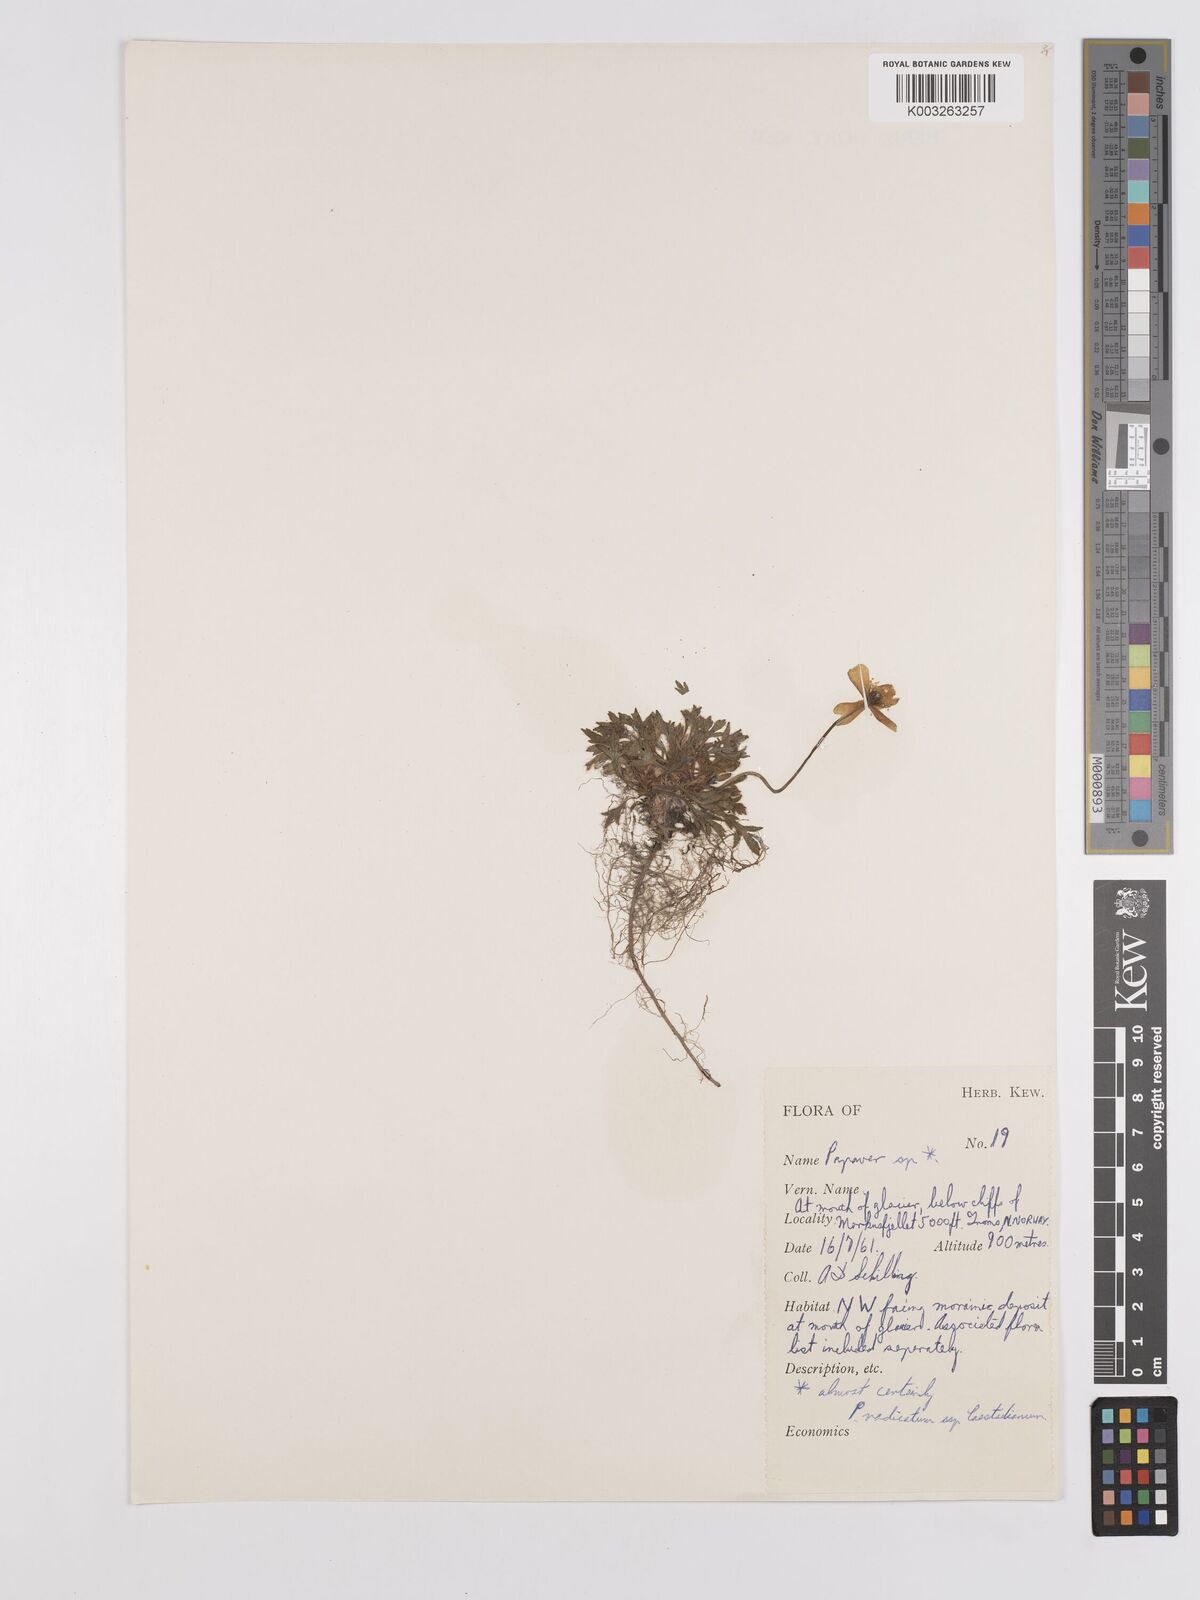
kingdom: Plantae
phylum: Tracheophyta
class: Magnoliopsida
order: Ranunculales
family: Papaveraceae
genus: Papaver
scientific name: Papaver laestadianum
